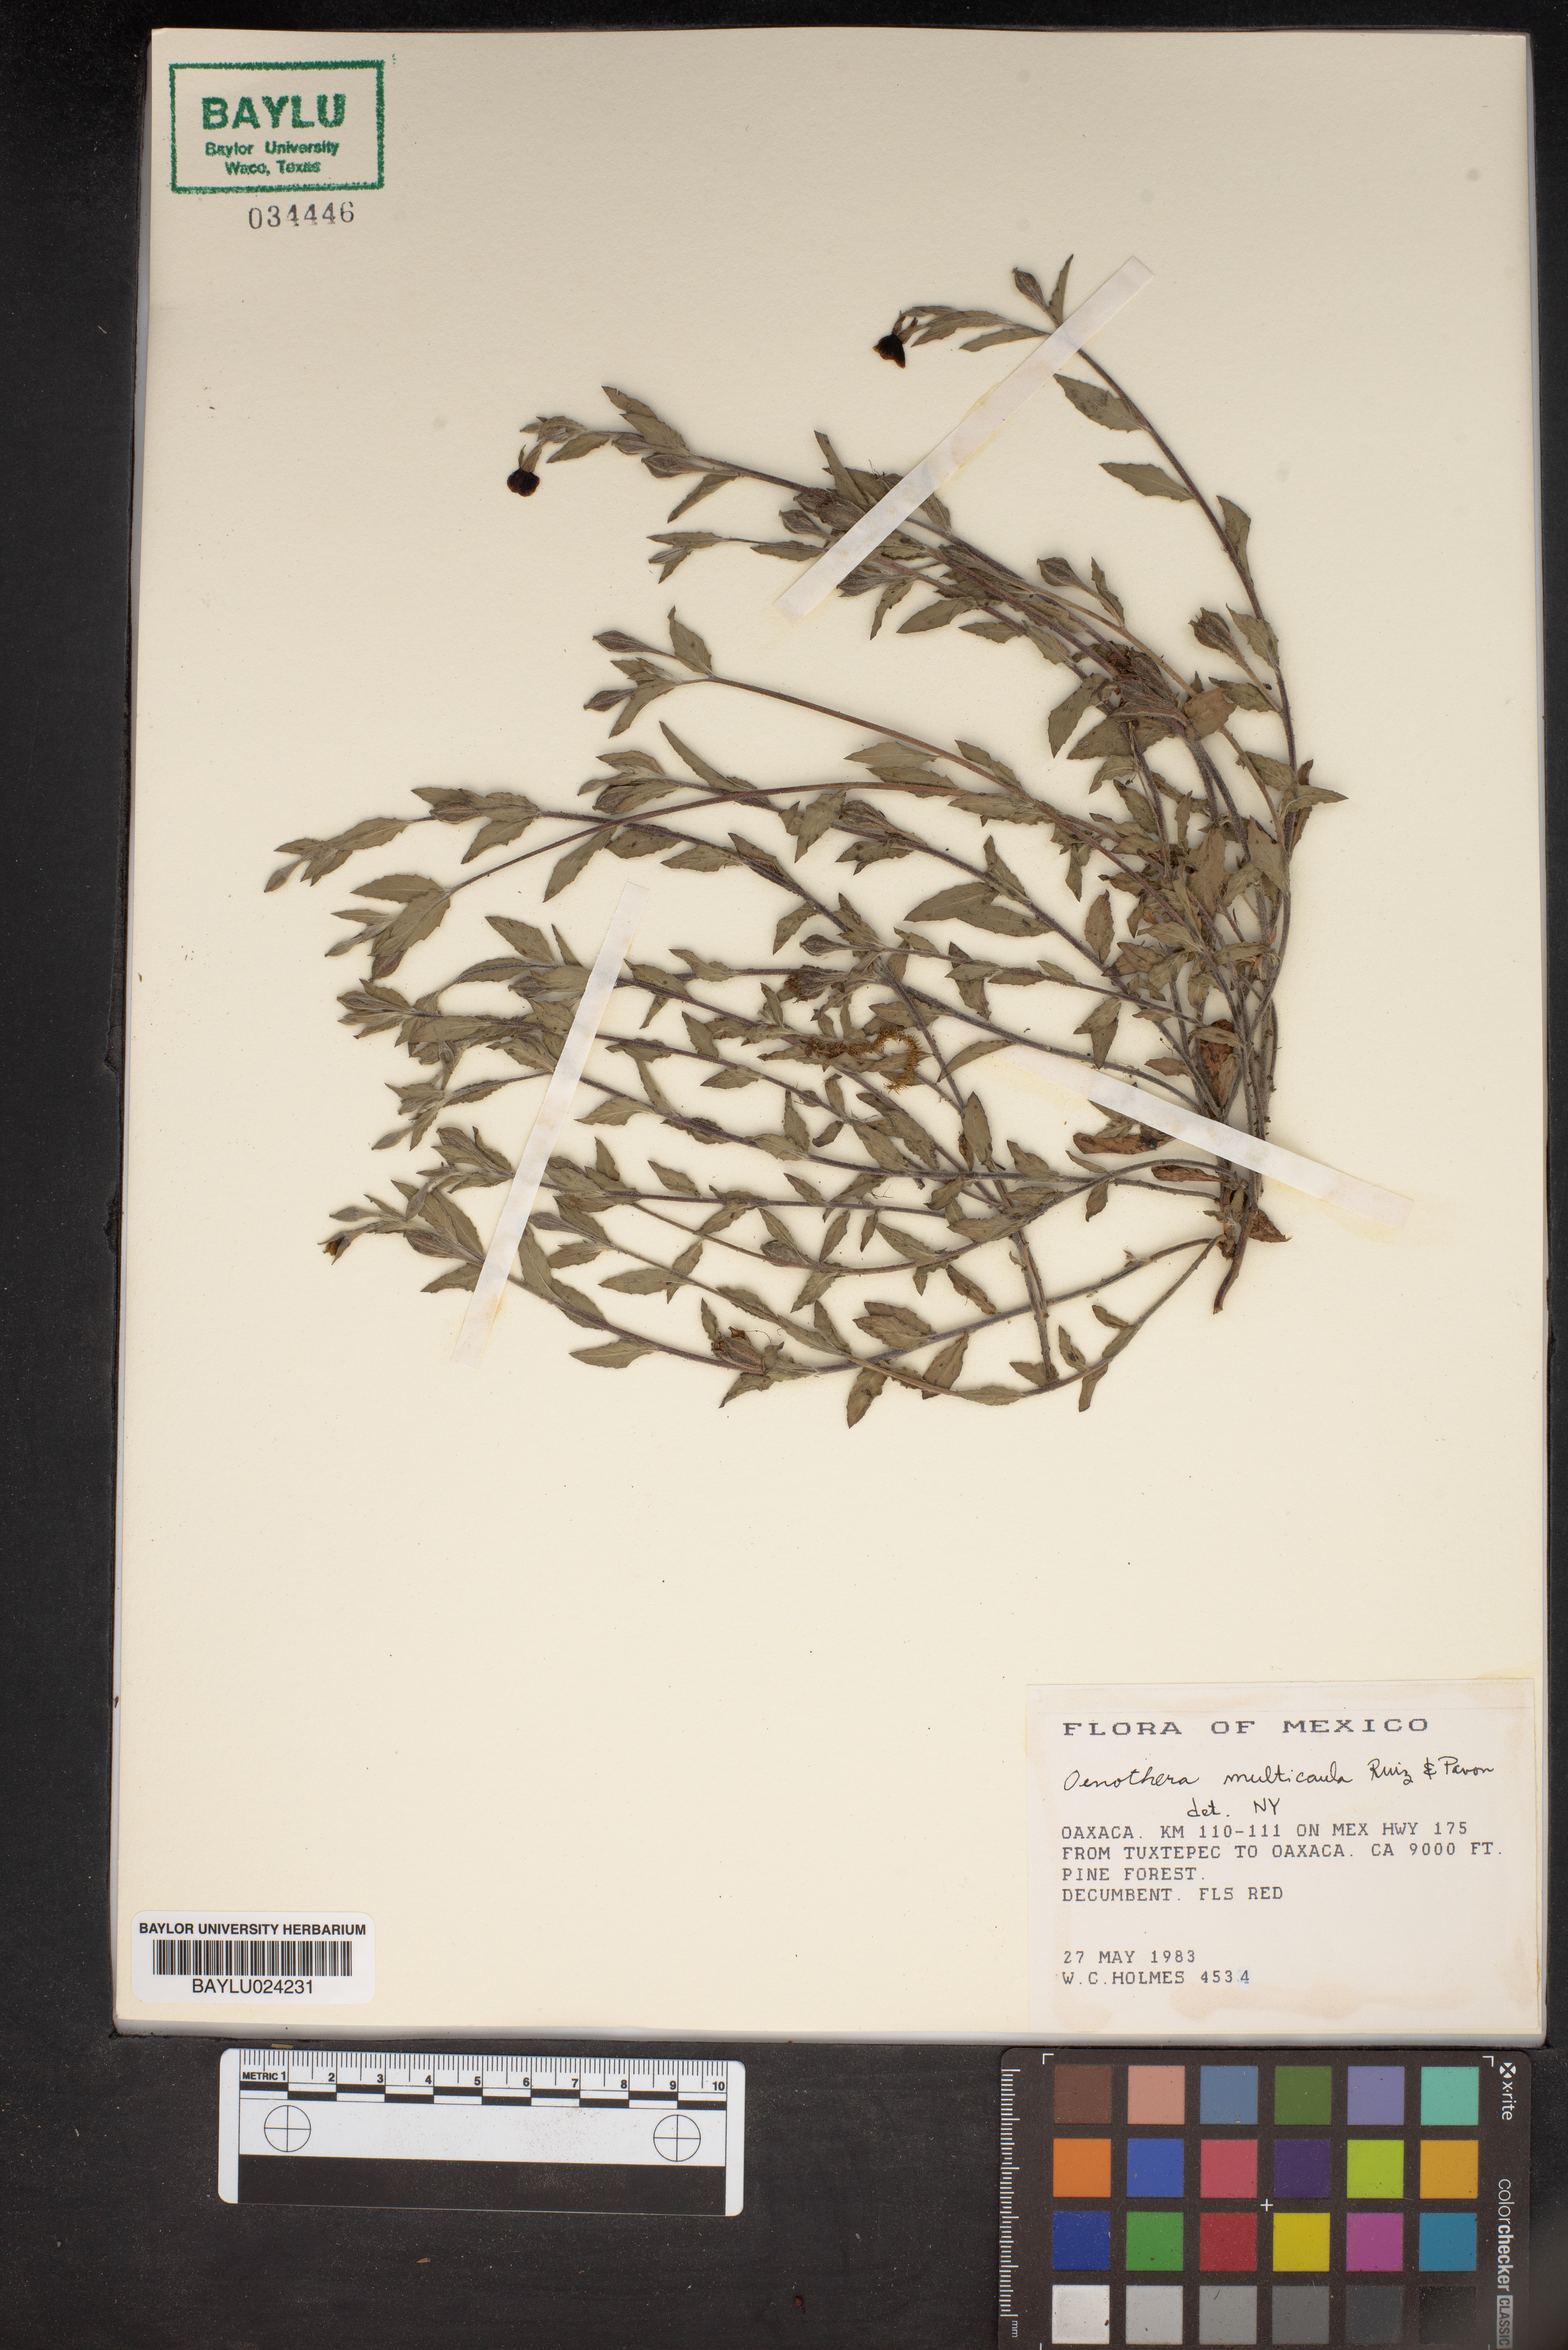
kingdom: Plantae
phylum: Tracheophyta
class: Magnoliopsida
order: Myrtales
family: Onagraceae
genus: Oenothera
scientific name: Oenothera multicaulis
